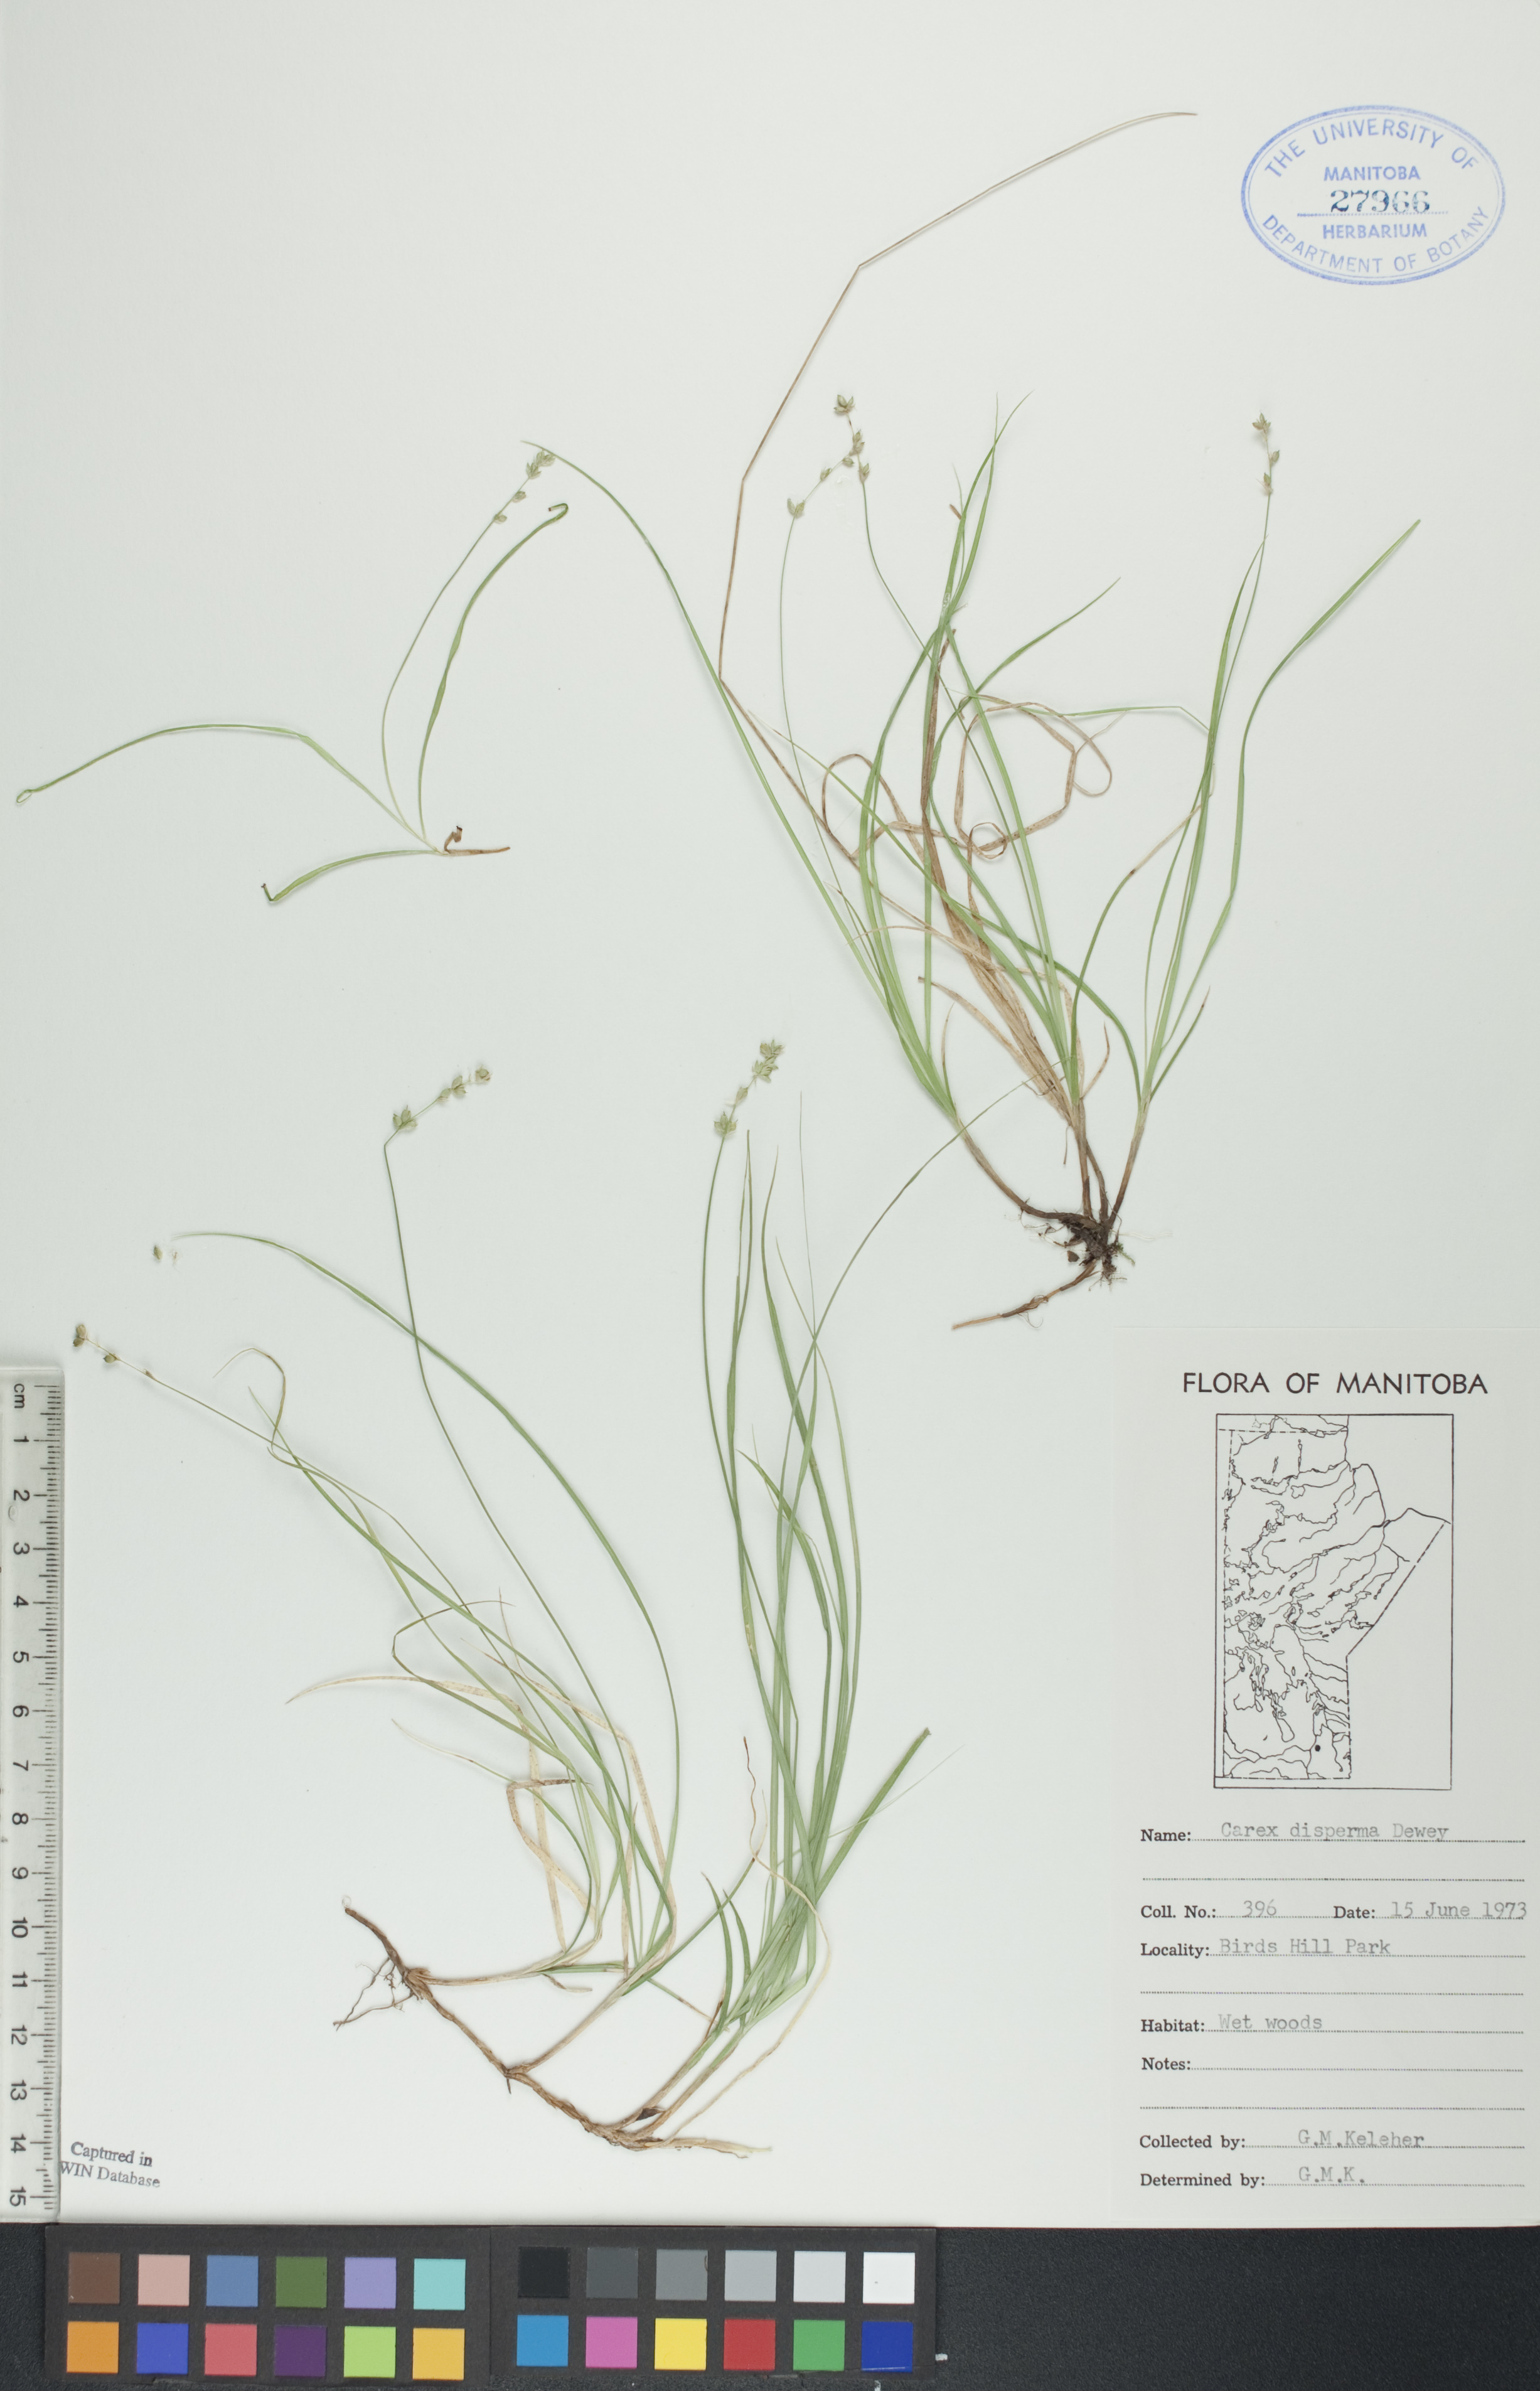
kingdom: Plantae
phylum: Tracheophyta
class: Liliopsida
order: Poales
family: Cyperaceae
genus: Carex
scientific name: Carex disperma
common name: Short-leaved sedge
